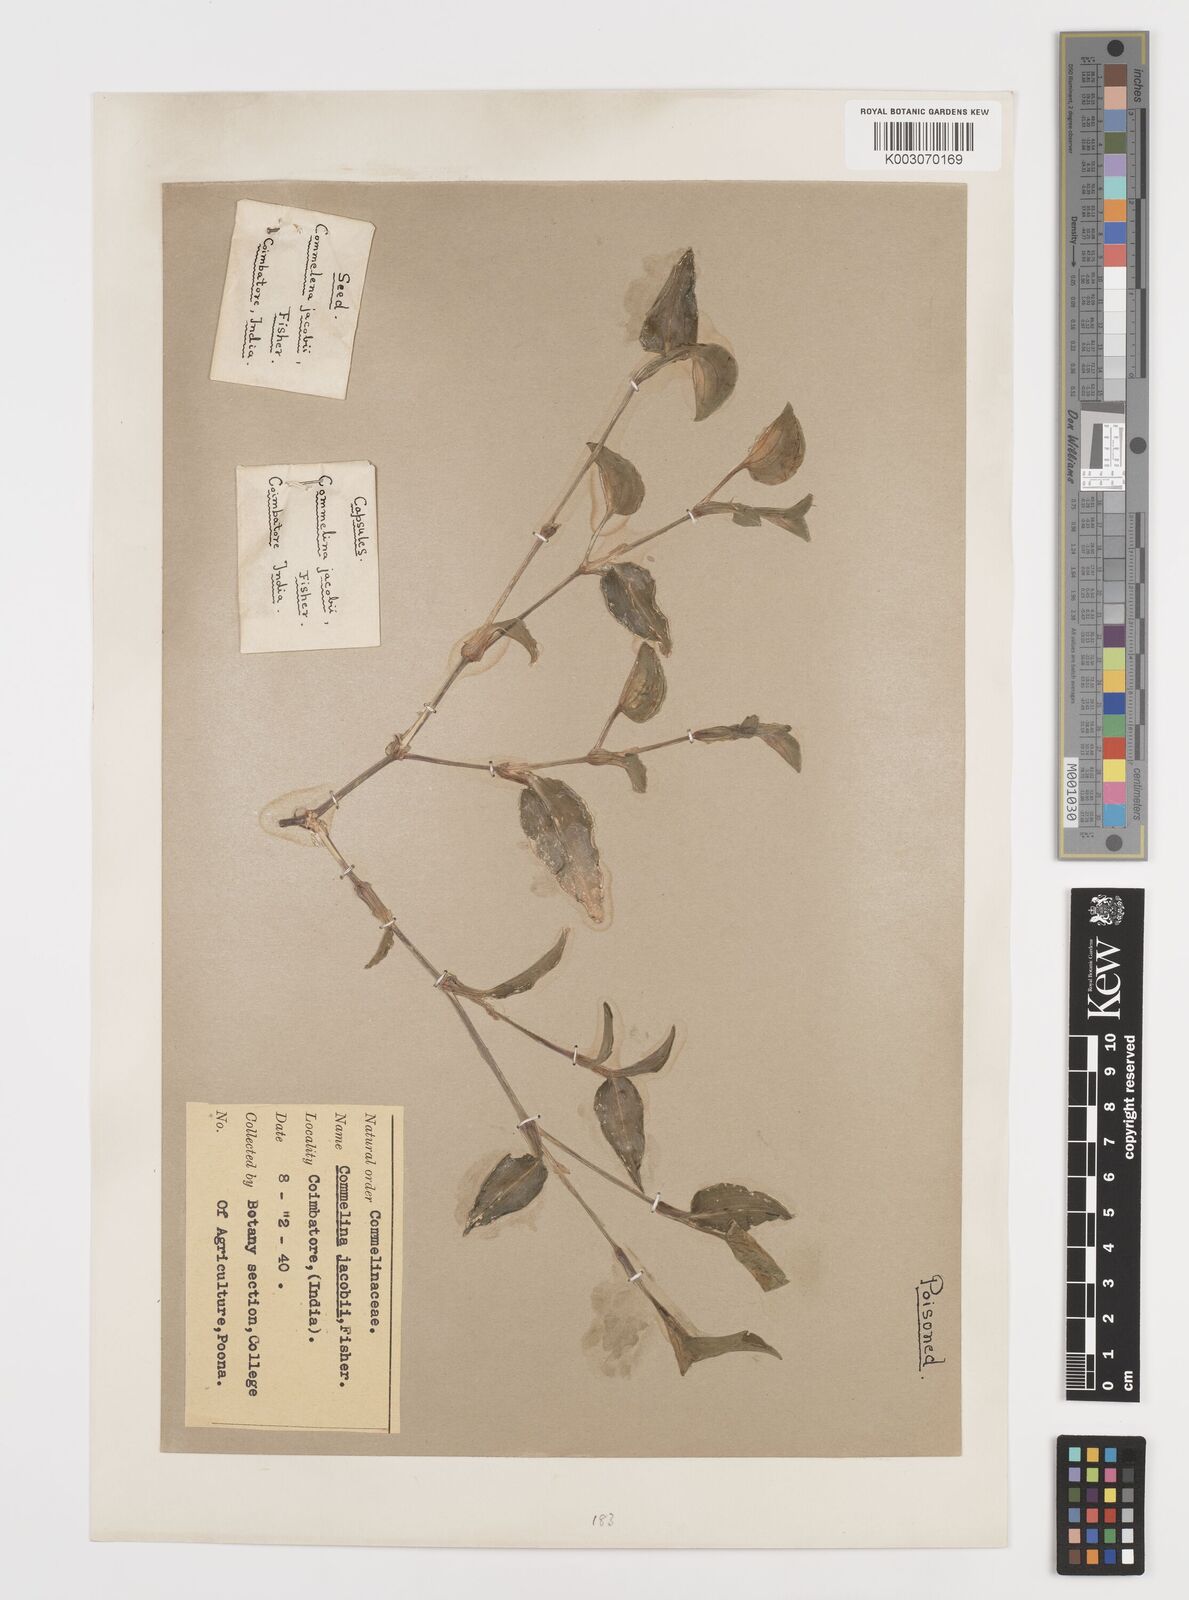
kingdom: Plantae
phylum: Tracheophyta
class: Liliopsida
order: Commelinales
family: Commelinaceae
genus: Commelina
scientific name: Commelina petersii
